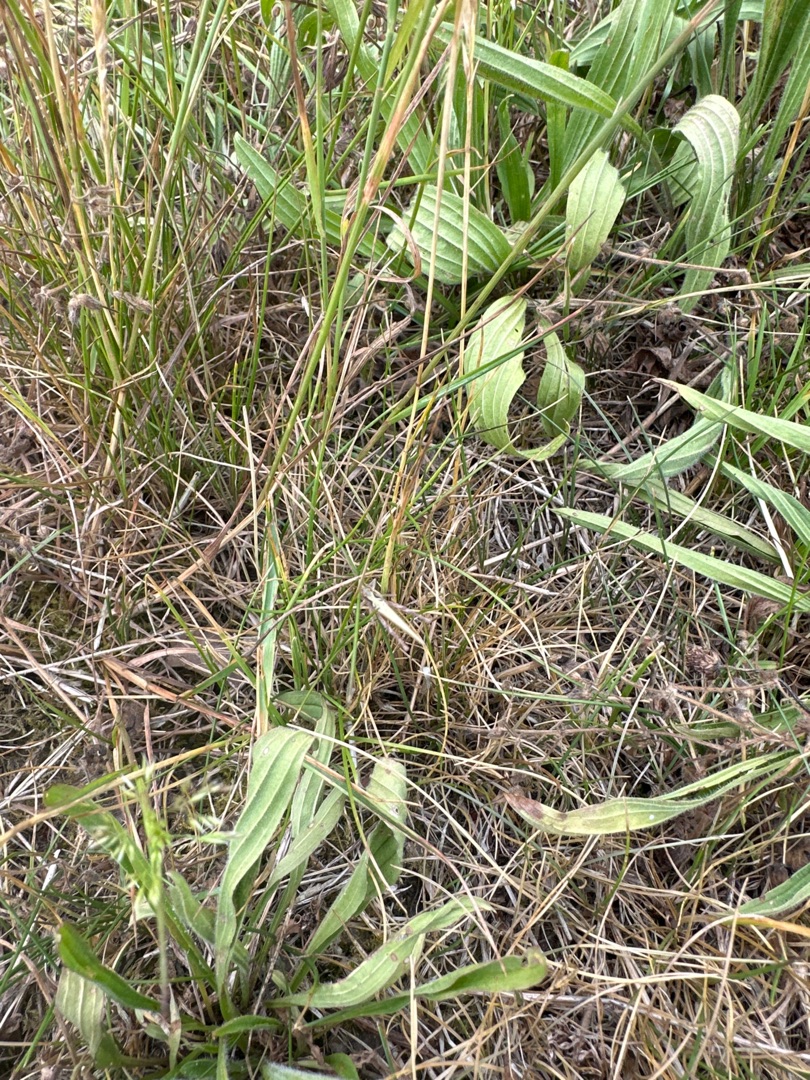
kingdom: Plantae
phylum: Tracheophyta
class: Magnoliopsida
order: Lamiales
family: Plantaginaceae
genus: Plantago
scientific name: Plantago lanceolata
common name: Lancet-vejbred
